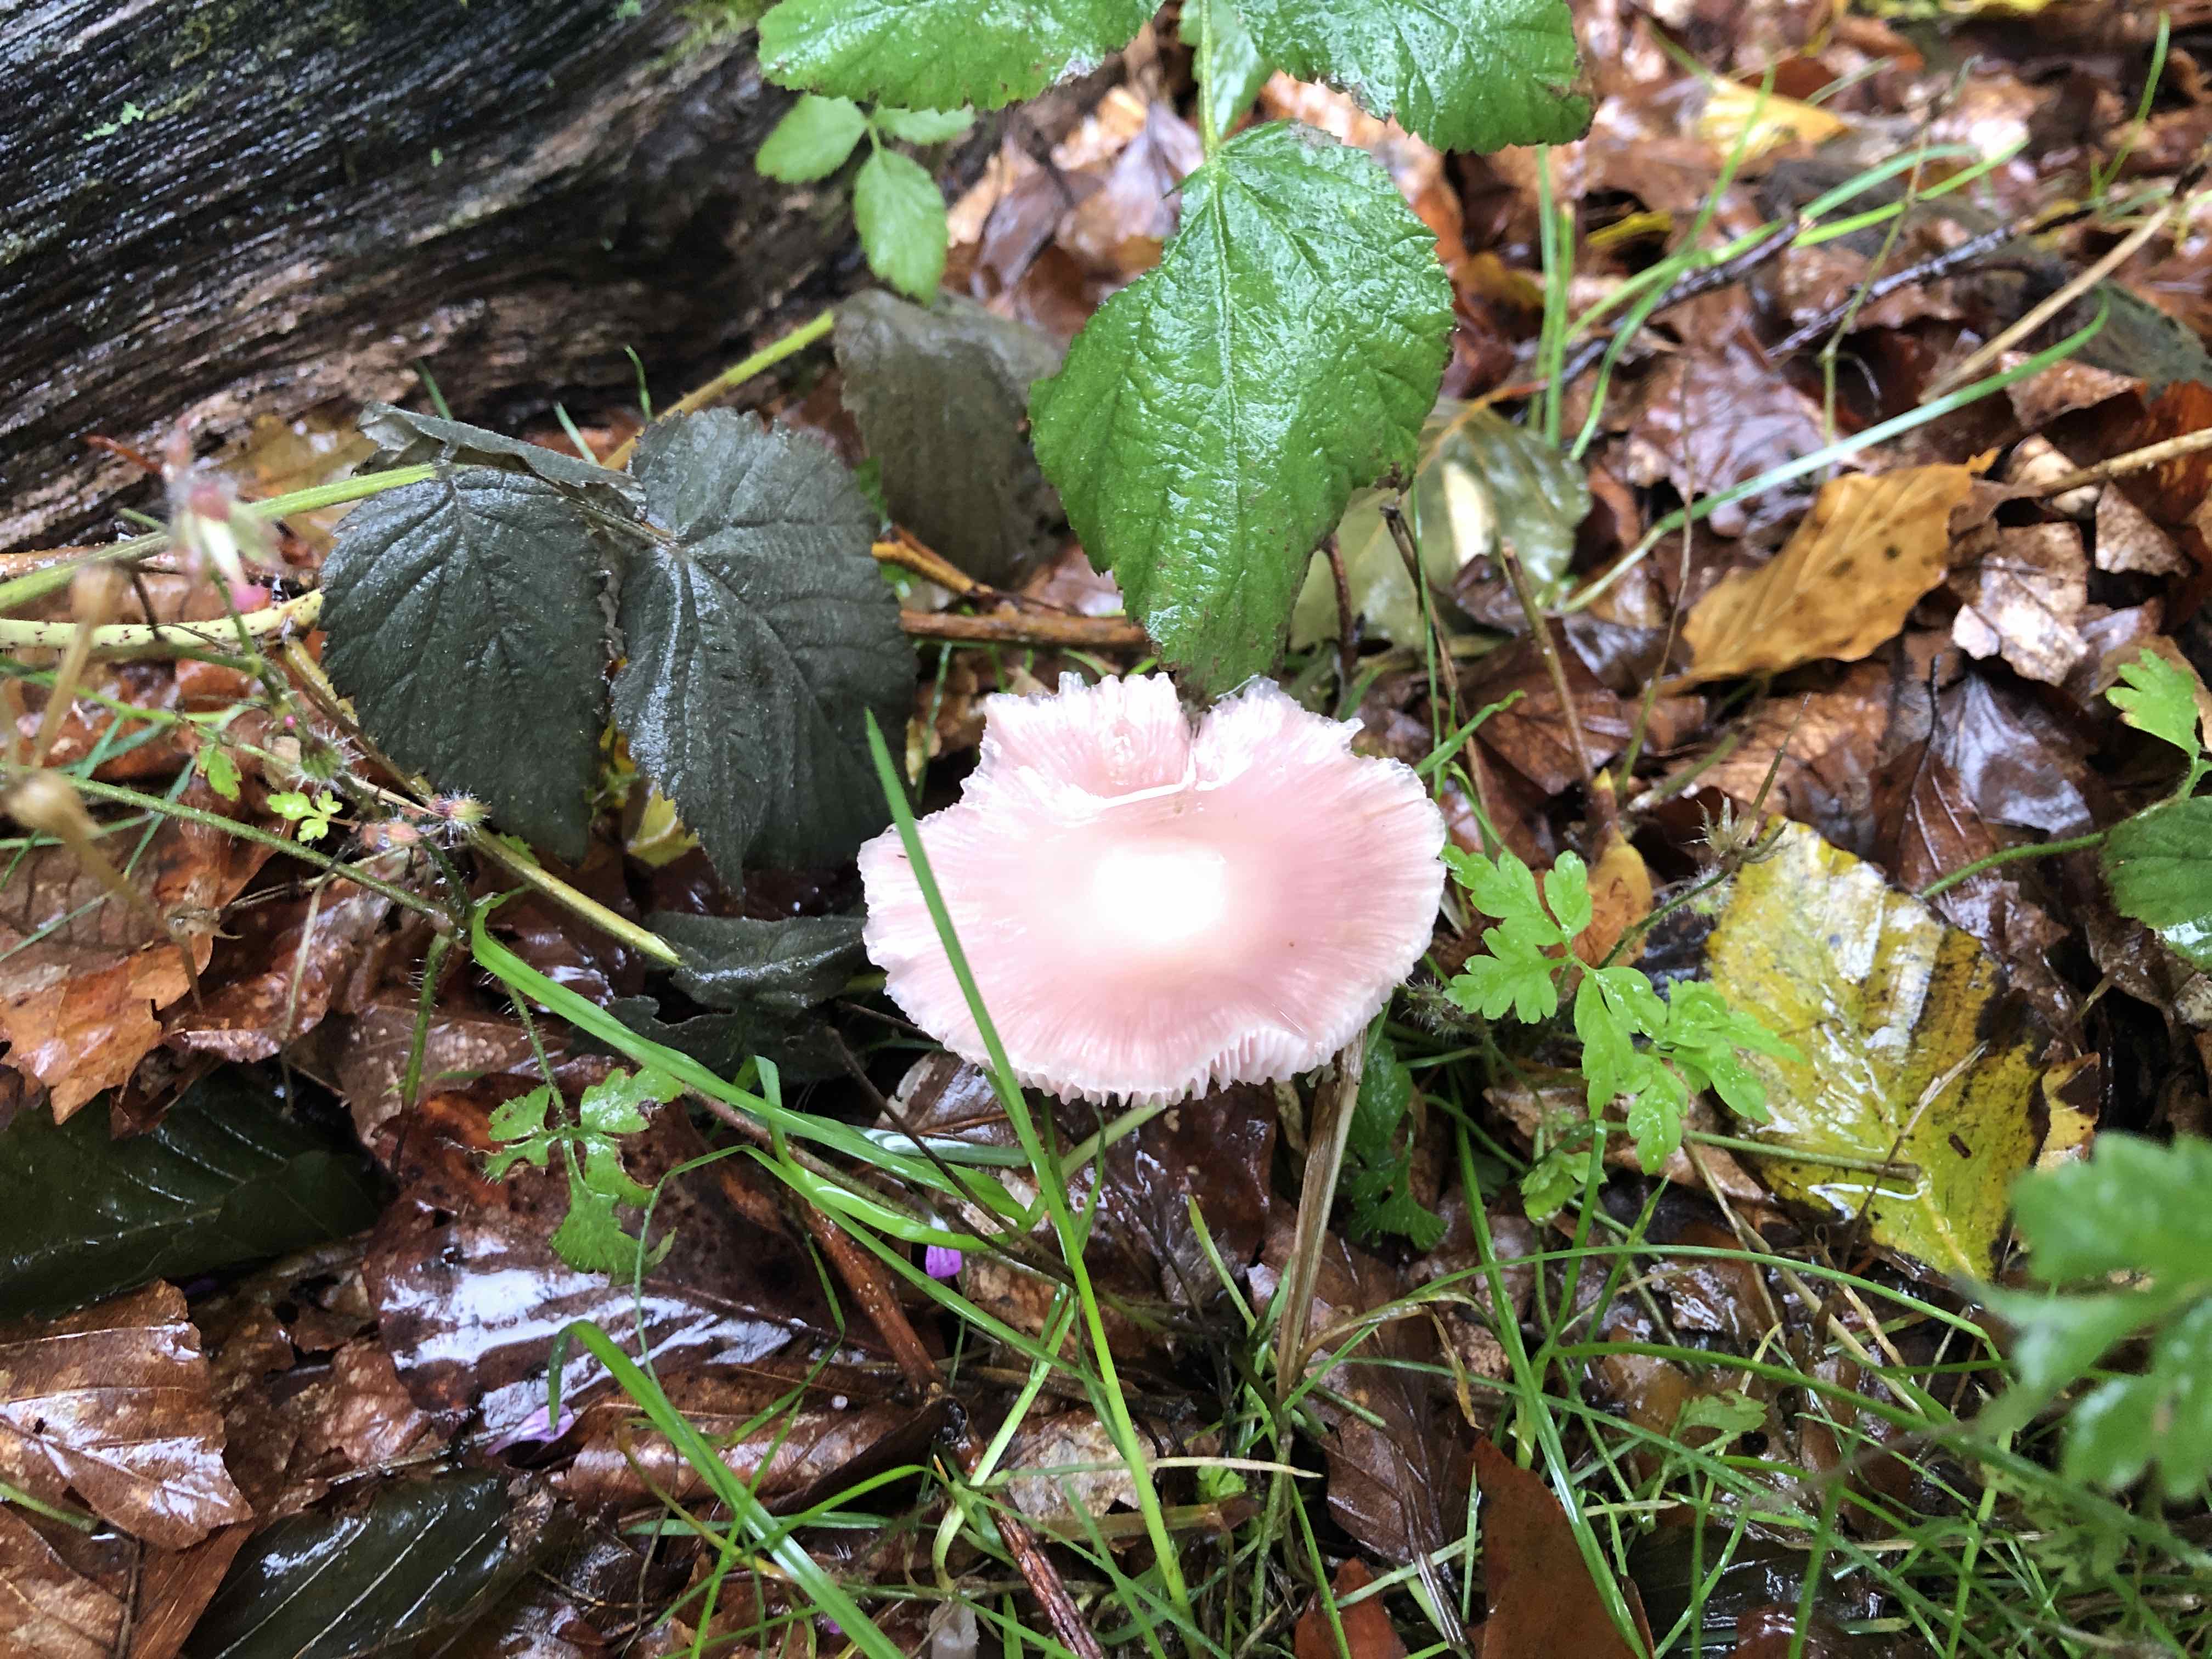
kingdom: Fungi
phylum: Basidiomycota
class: Agaricomycetes
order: Agaricales
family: Mycenaceae
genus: Mycena
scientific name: Mycena rosea
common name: rosa huesvamp
